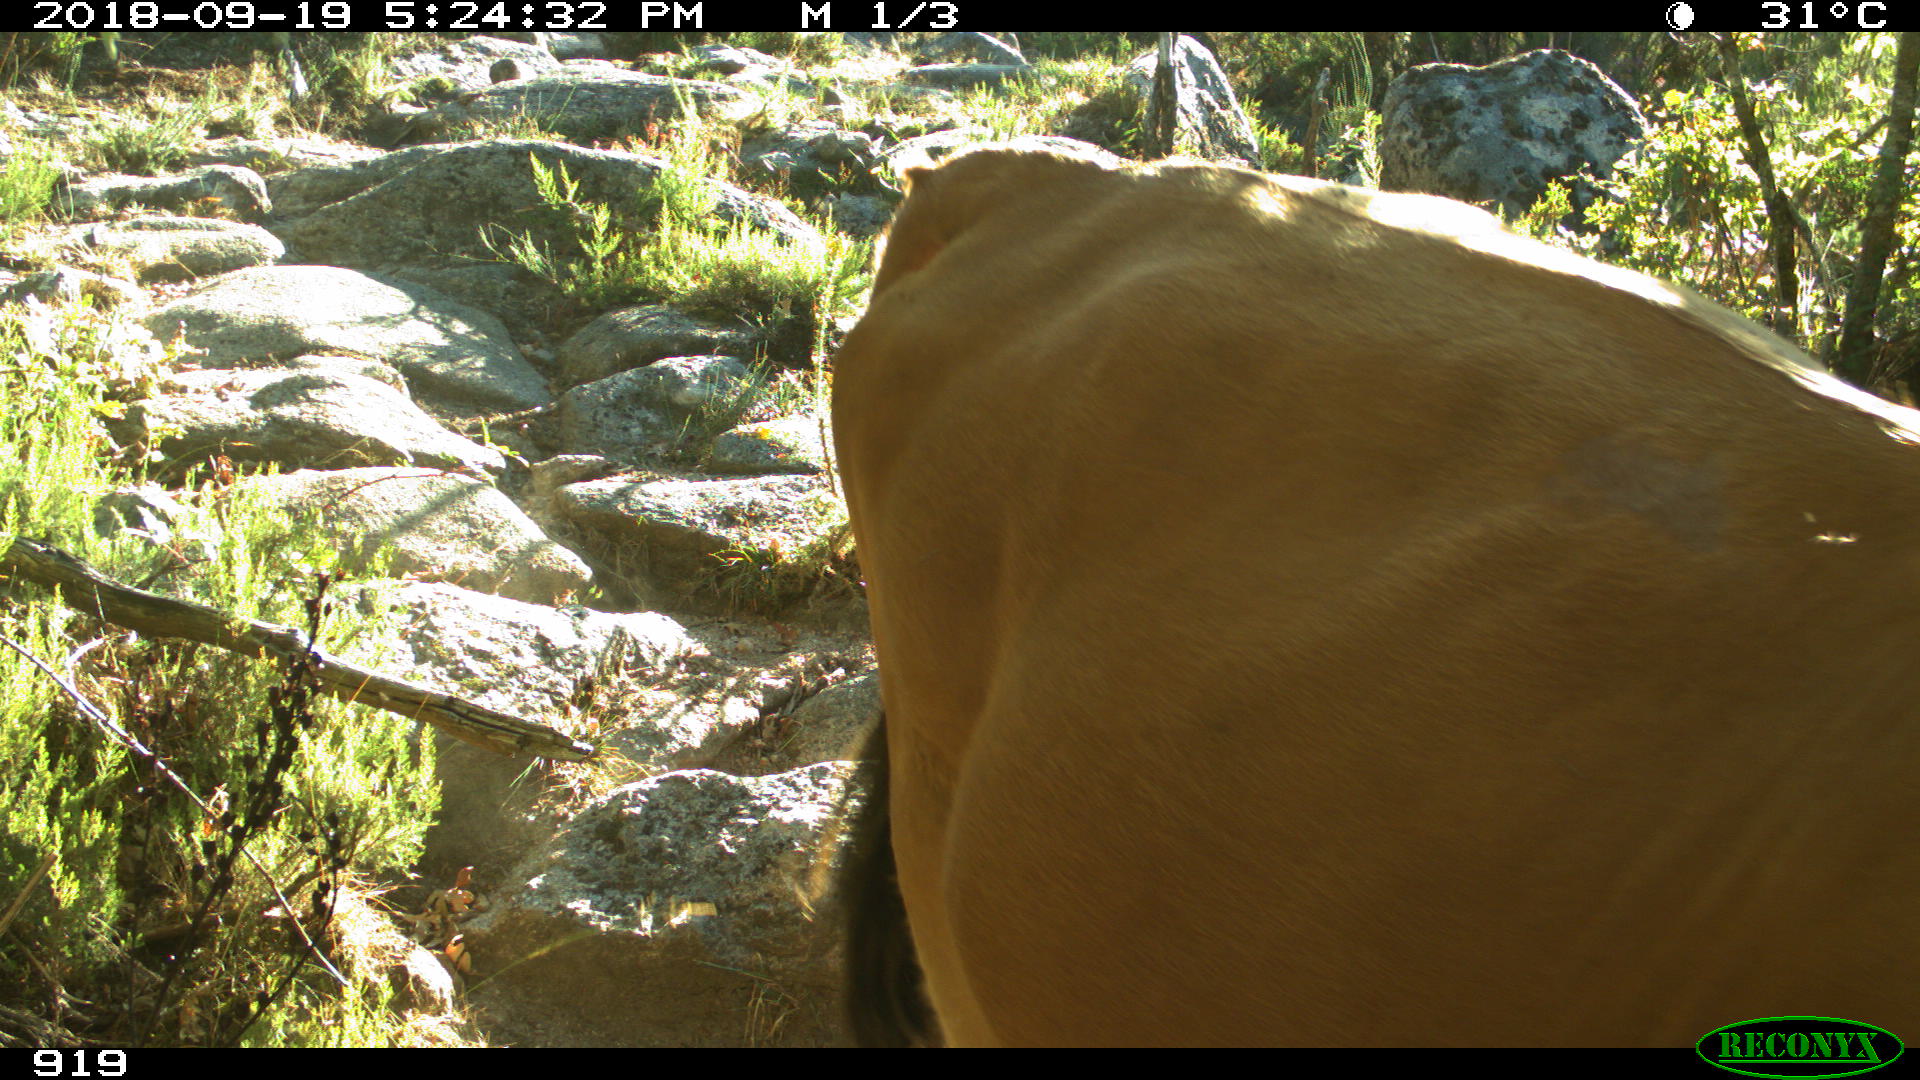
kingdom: Animalia
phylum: Chordata
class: Mammalia
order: Artiodactyla
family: Bovidae
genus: Bos
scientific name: Bos taurus
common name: Domesticated cattle
